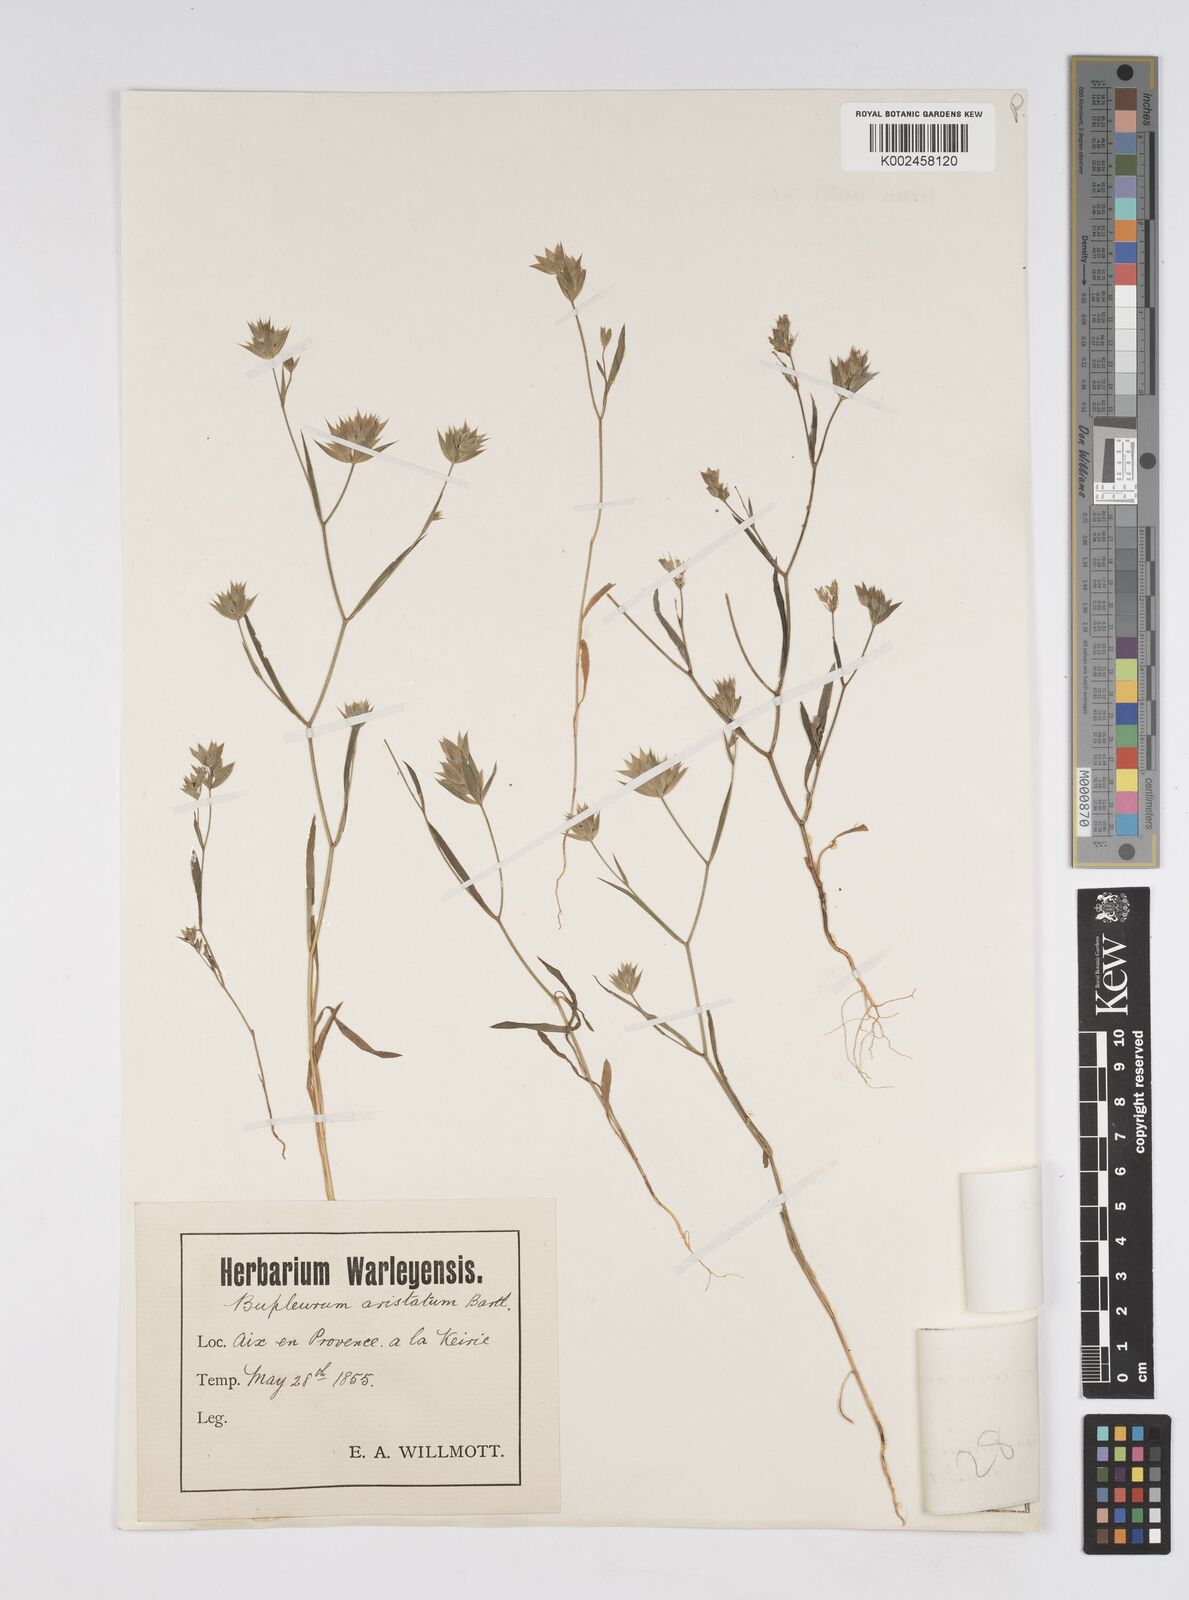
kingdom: Plantae
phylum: Tracheophyta
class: Magnoliopsida
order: Apiales
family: Apiaceae
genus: Bupleurum
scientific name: Bupleurum baldense
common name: Small hare's-ear
